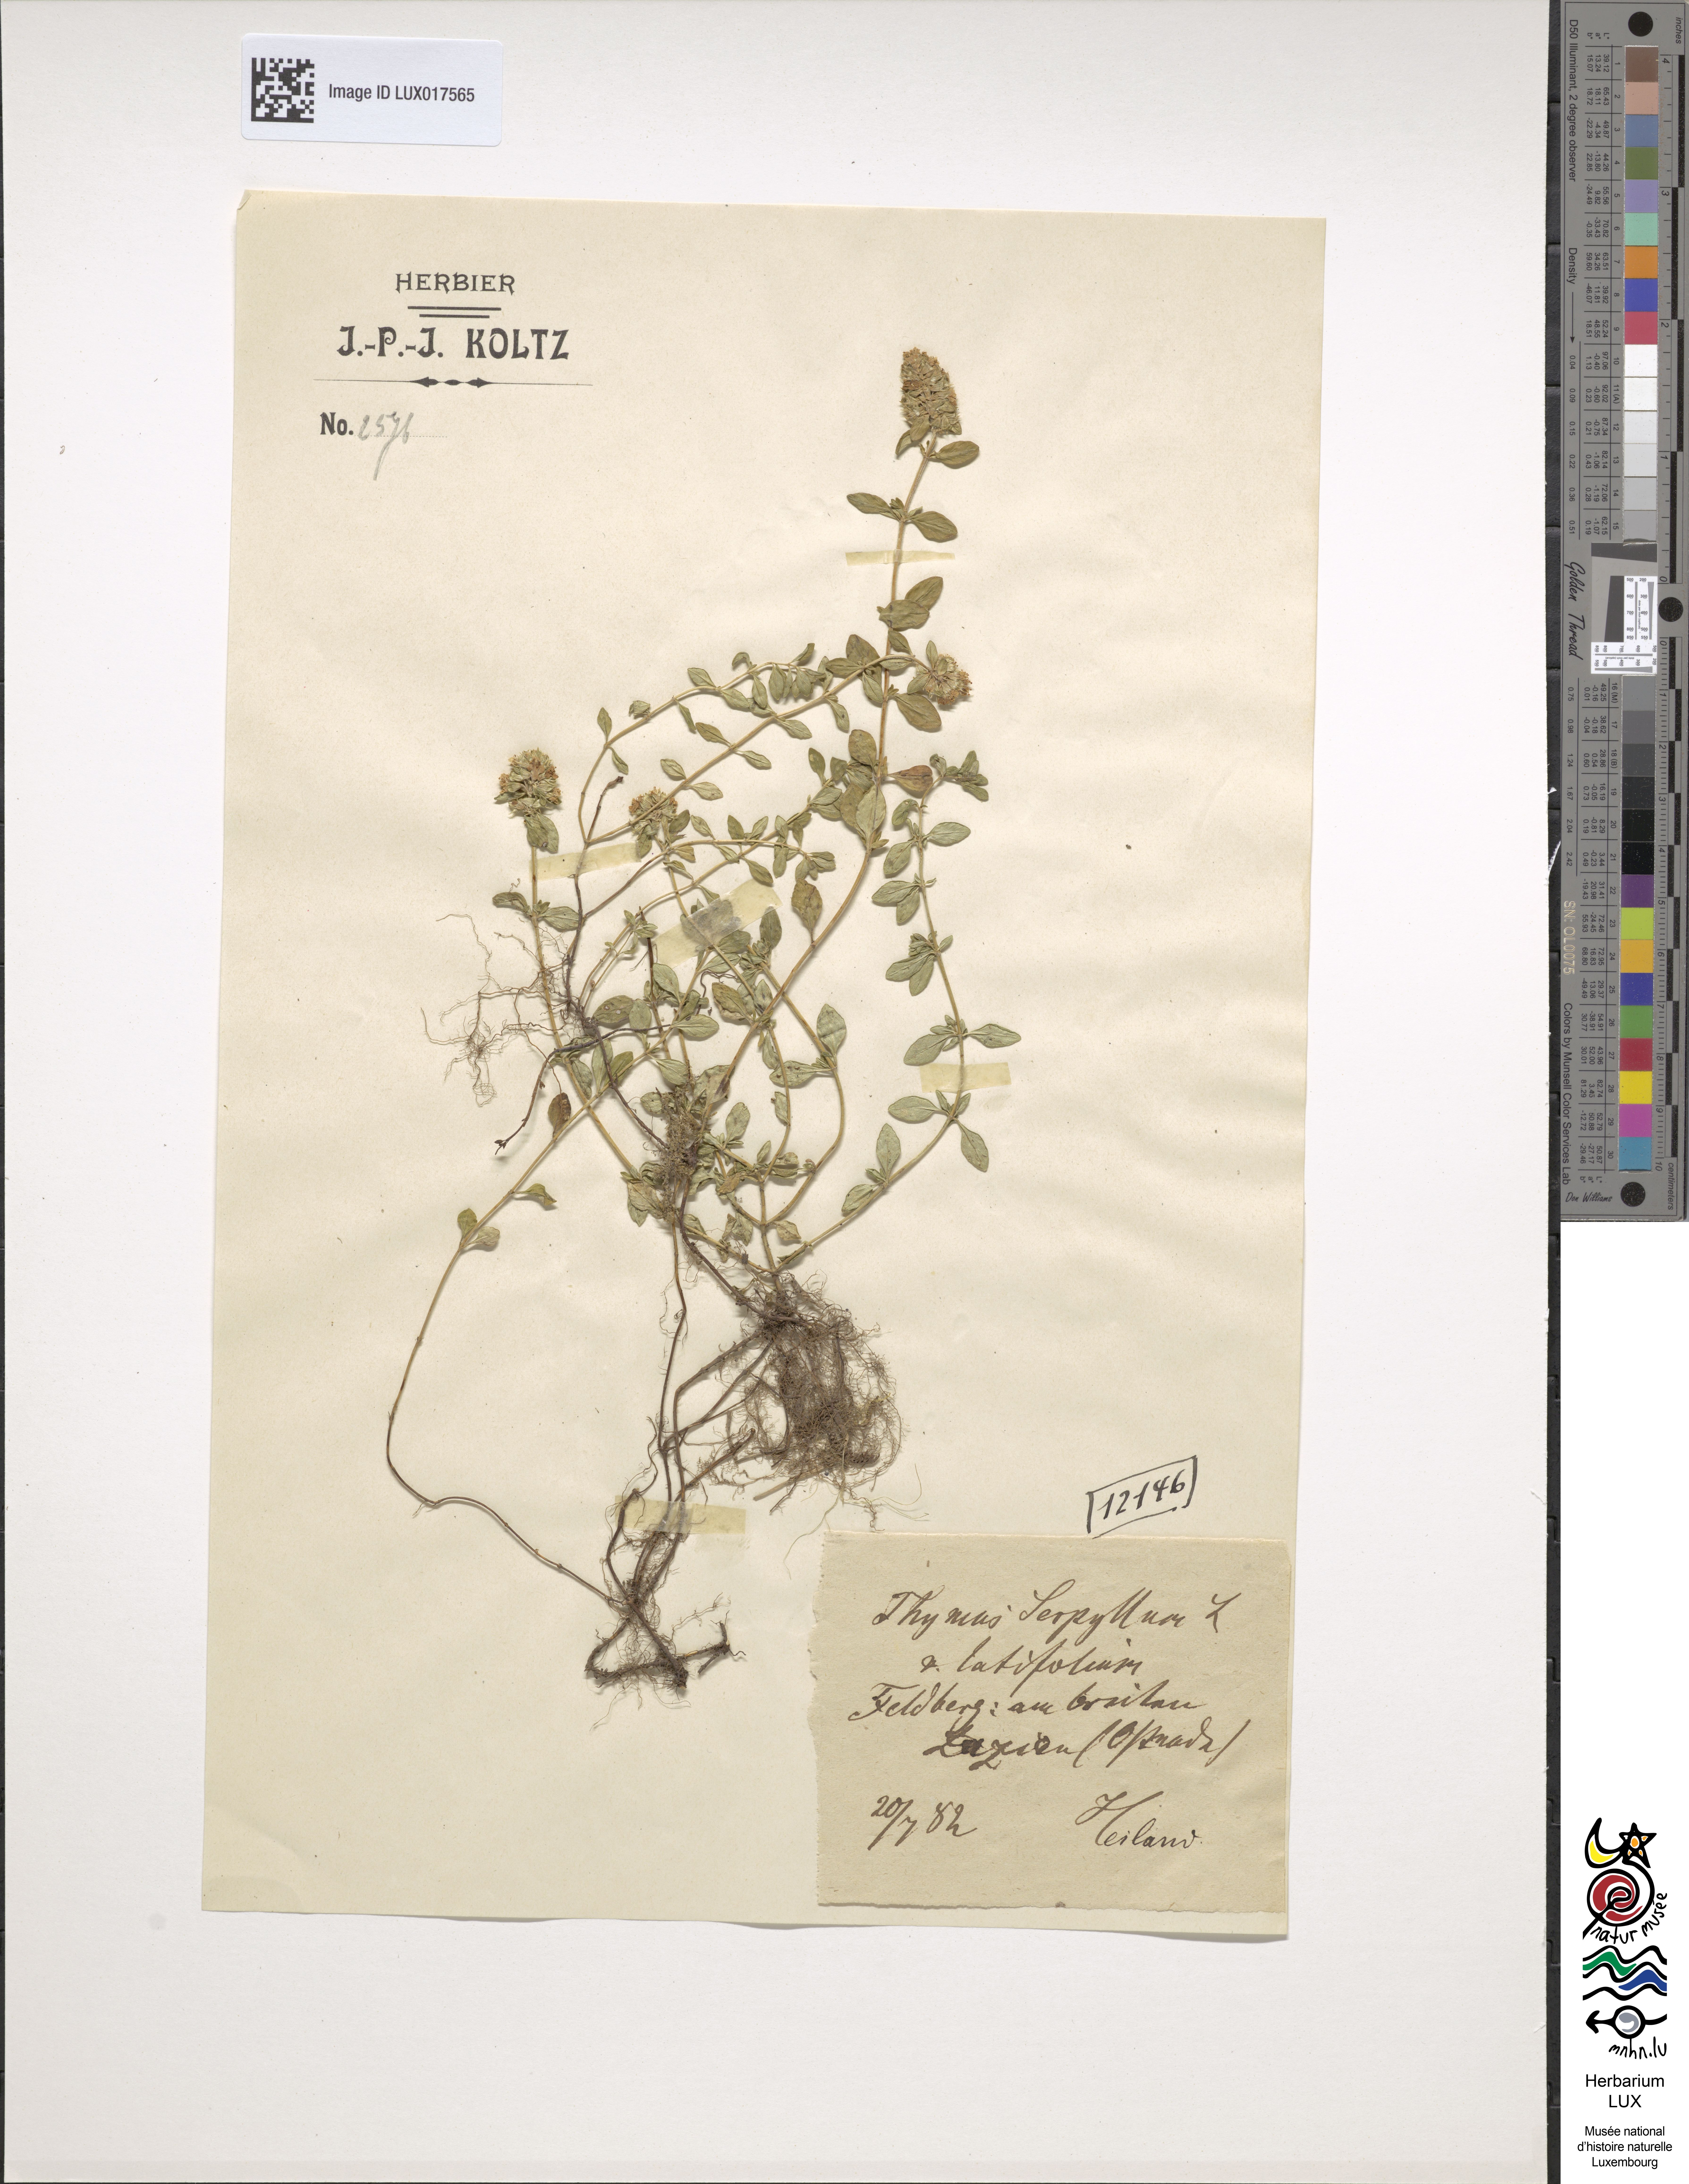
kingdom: Plantae
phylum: Tracheophyta
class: Magnoliopsida
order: Lamiales
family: Lamiaceae
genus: Thymus
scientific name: Thymus serpyllum
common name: Breckland thyme
